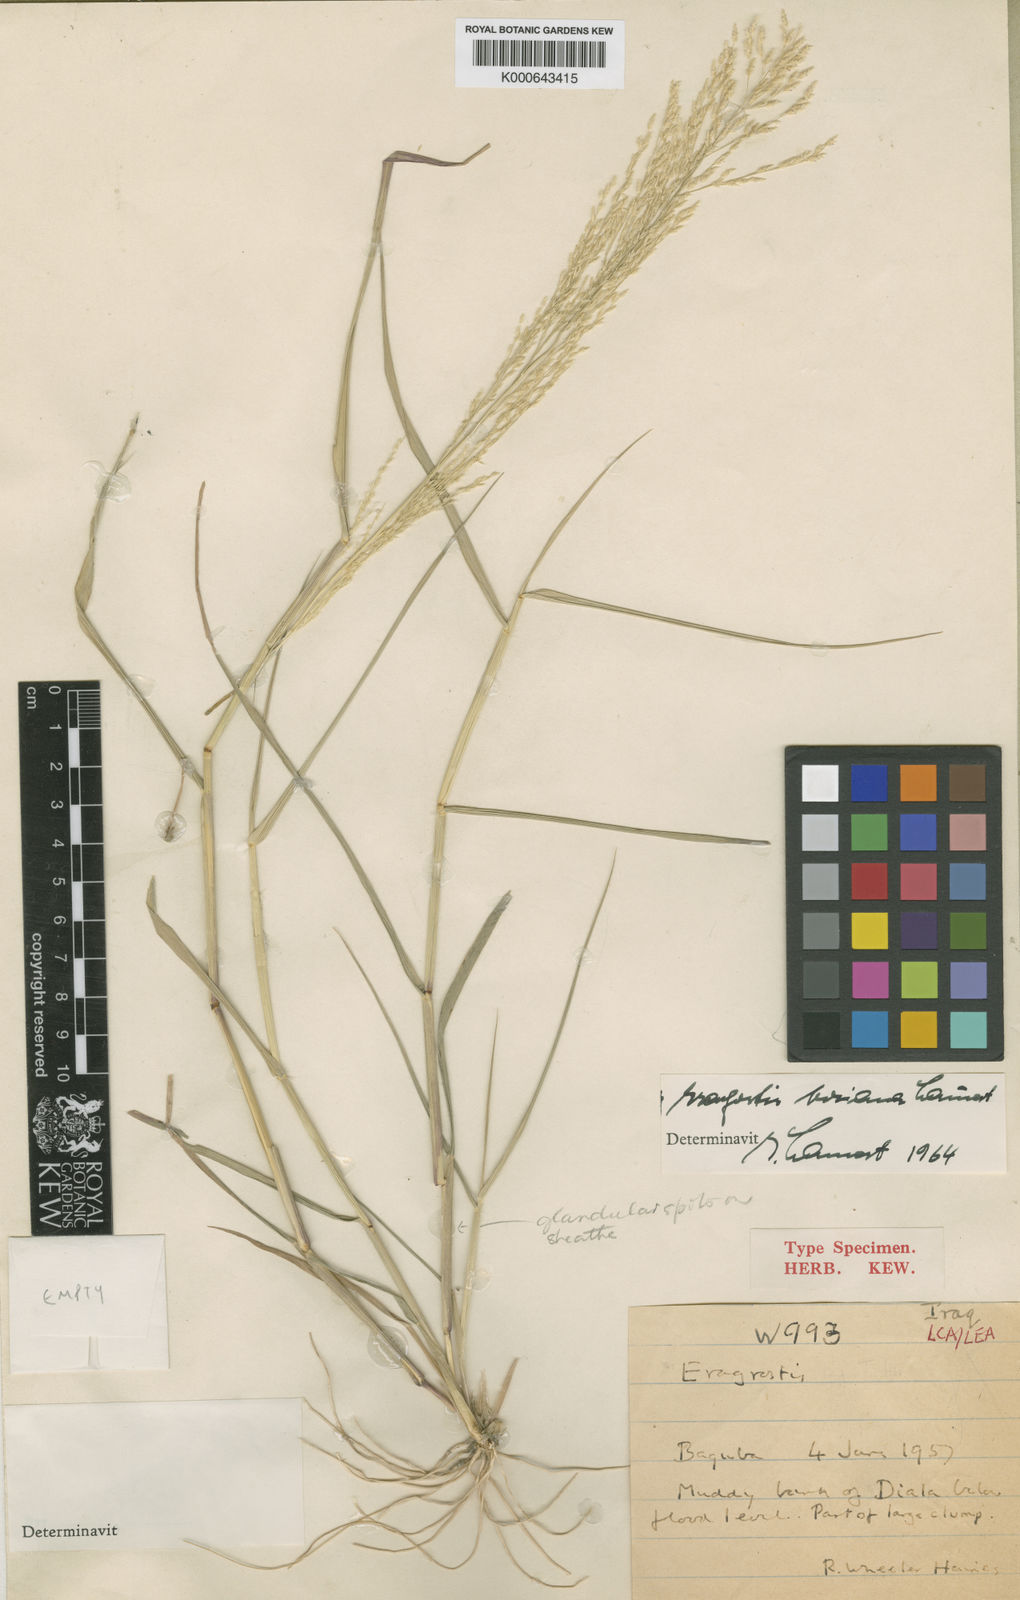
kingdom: Plantae
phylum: Tracheophyta
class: Liliopsida
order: Poales
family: Poaceae
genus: Eragrostis
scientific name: Eragrostis boriana
